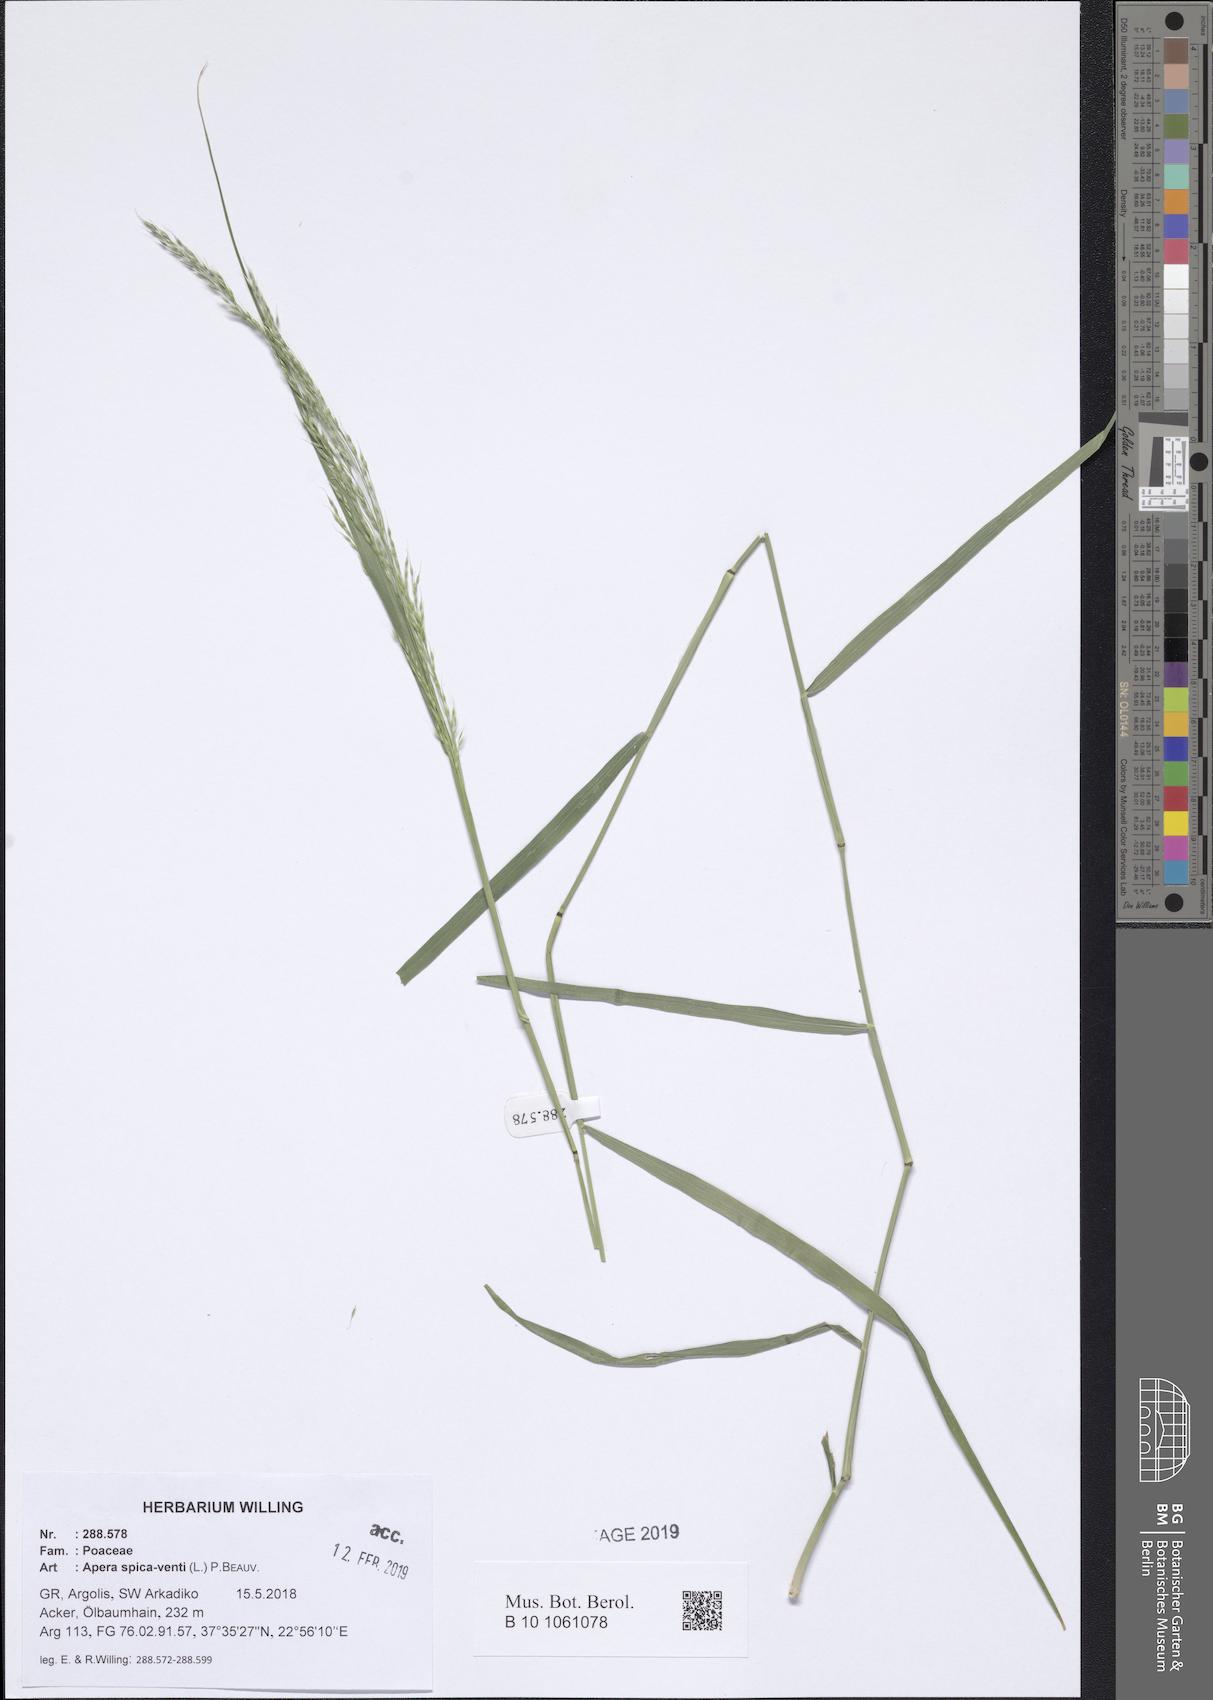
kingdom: Plantae
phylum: Tracheophyta
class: Liliopsida
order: Poales
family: Poaceae
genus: Apera
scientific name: Apera spica-venti
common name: Loose silky-bent
